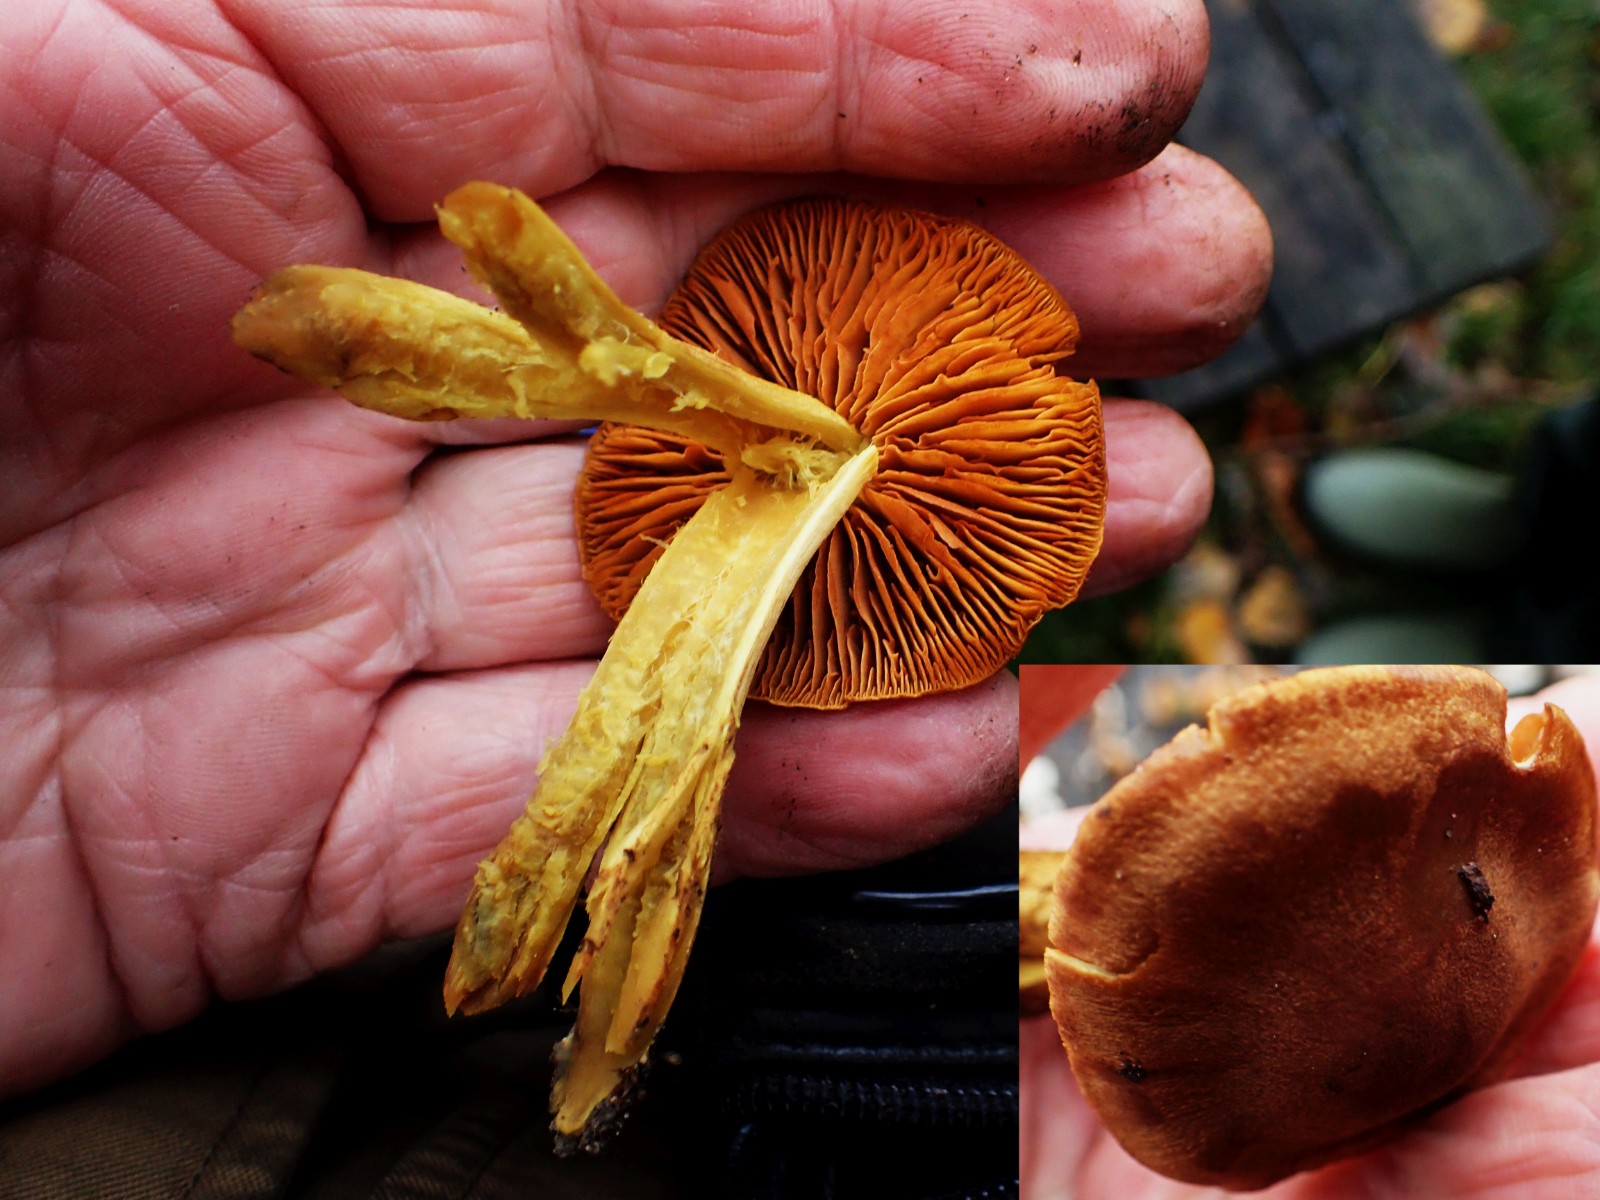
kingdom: Fungi
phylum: Basidiomycota
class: Agaricomycetes
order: Agaricales
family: Cortinariaceae
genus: Cortinarius
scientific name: Cortinarius
